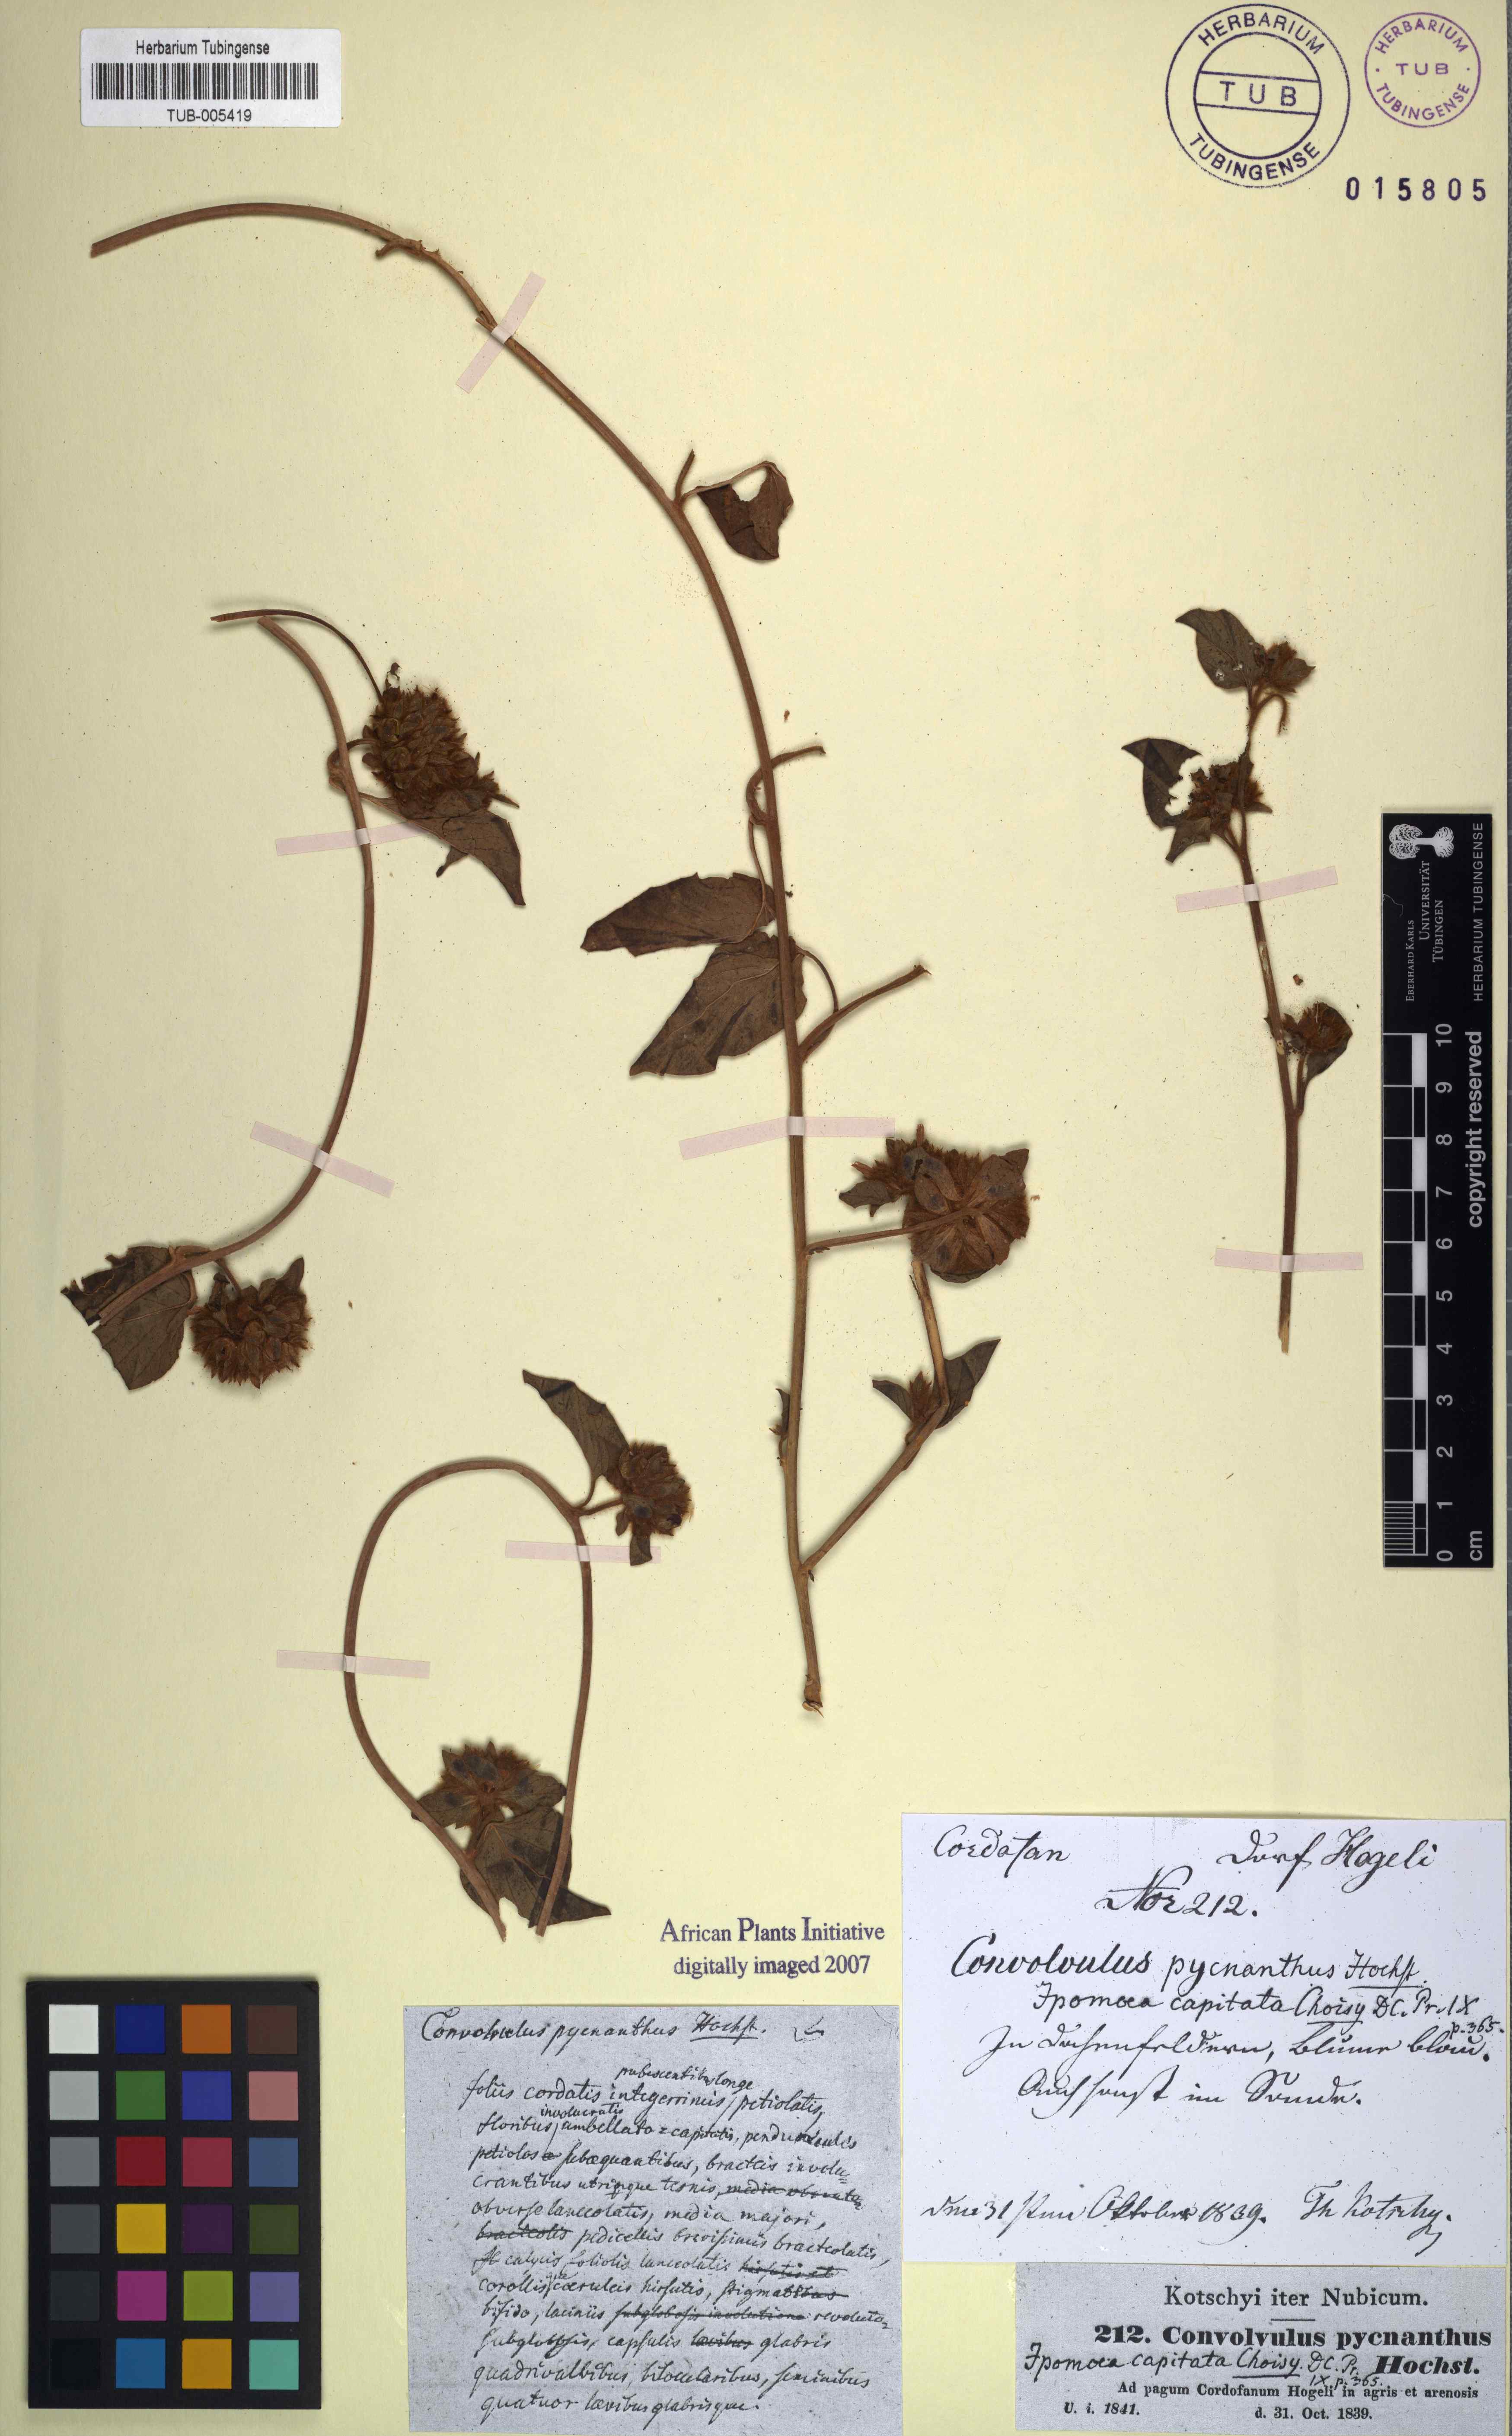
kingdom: Plantae
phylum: Tracheophyta
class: Magnoliopsida
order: Solanales
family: Convolvulaceae
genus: Jacquemontia
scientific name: Jacquemontia tamnifolia
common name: Hairy clustervine
